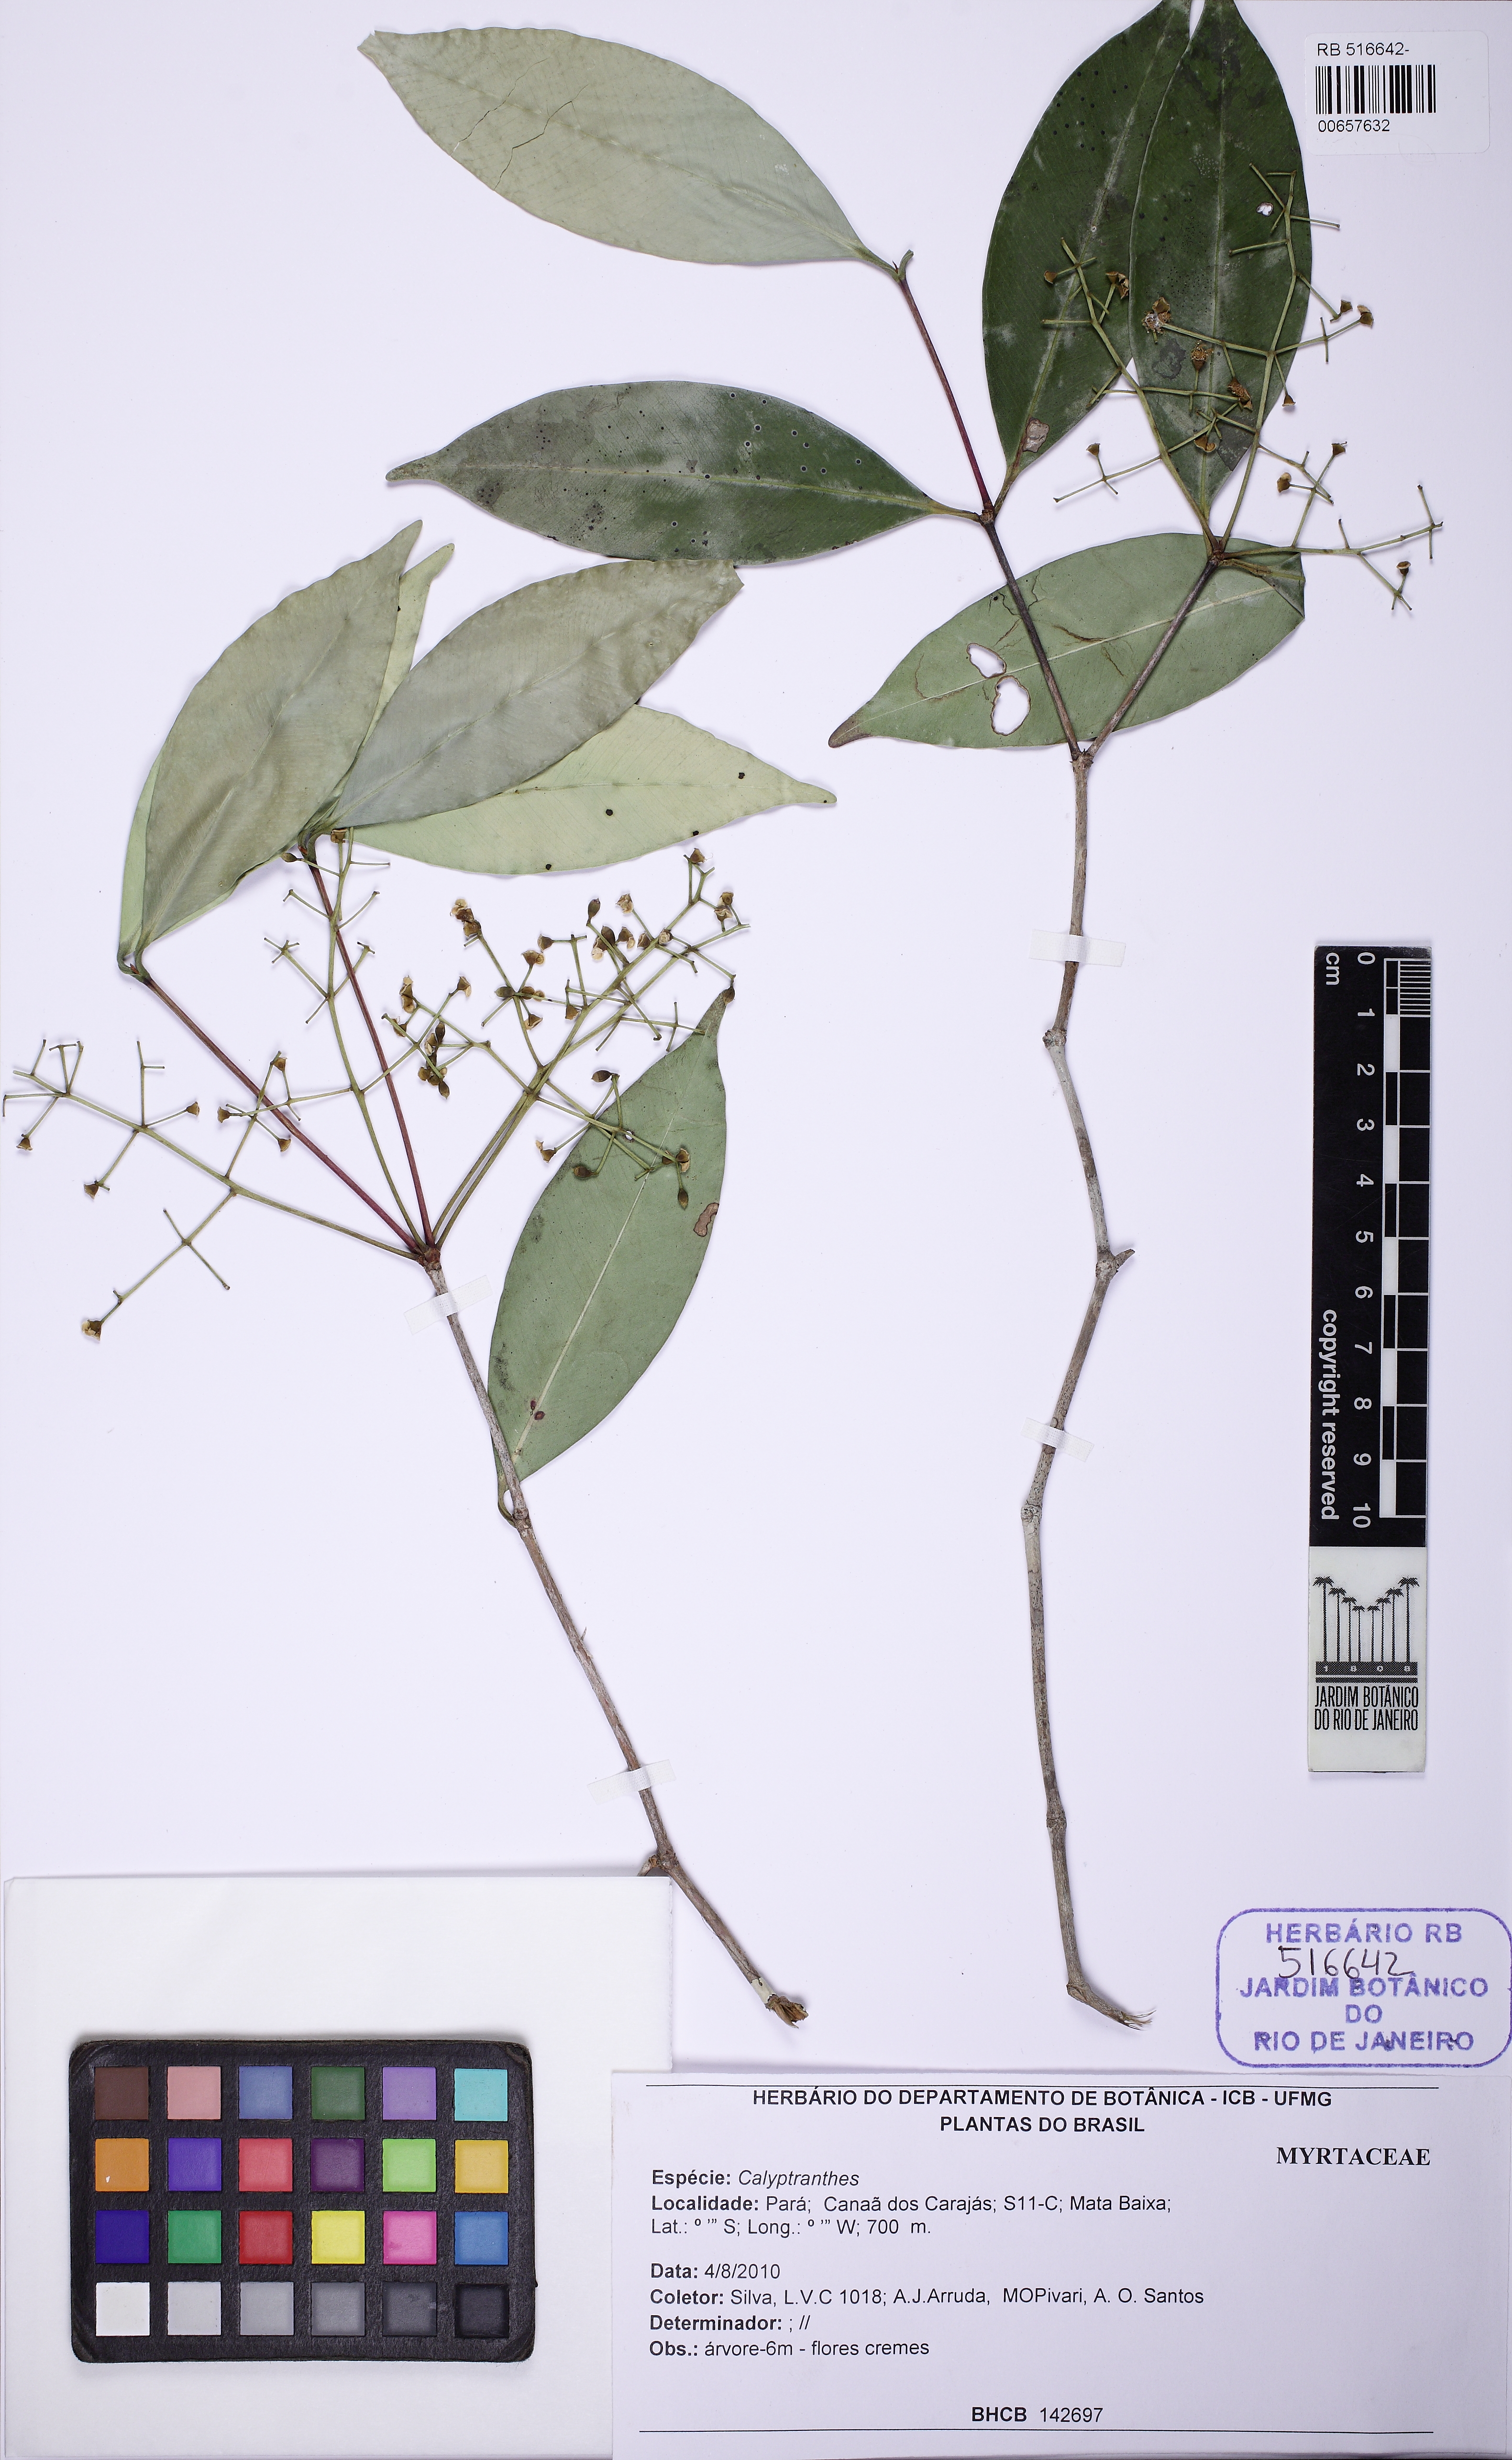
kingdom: Plantae
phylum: Tracheophyta
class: Magnoliopsida
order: Myrtales
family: Myrtaceae
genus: Calyptranthes
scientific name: Calyptranthes
